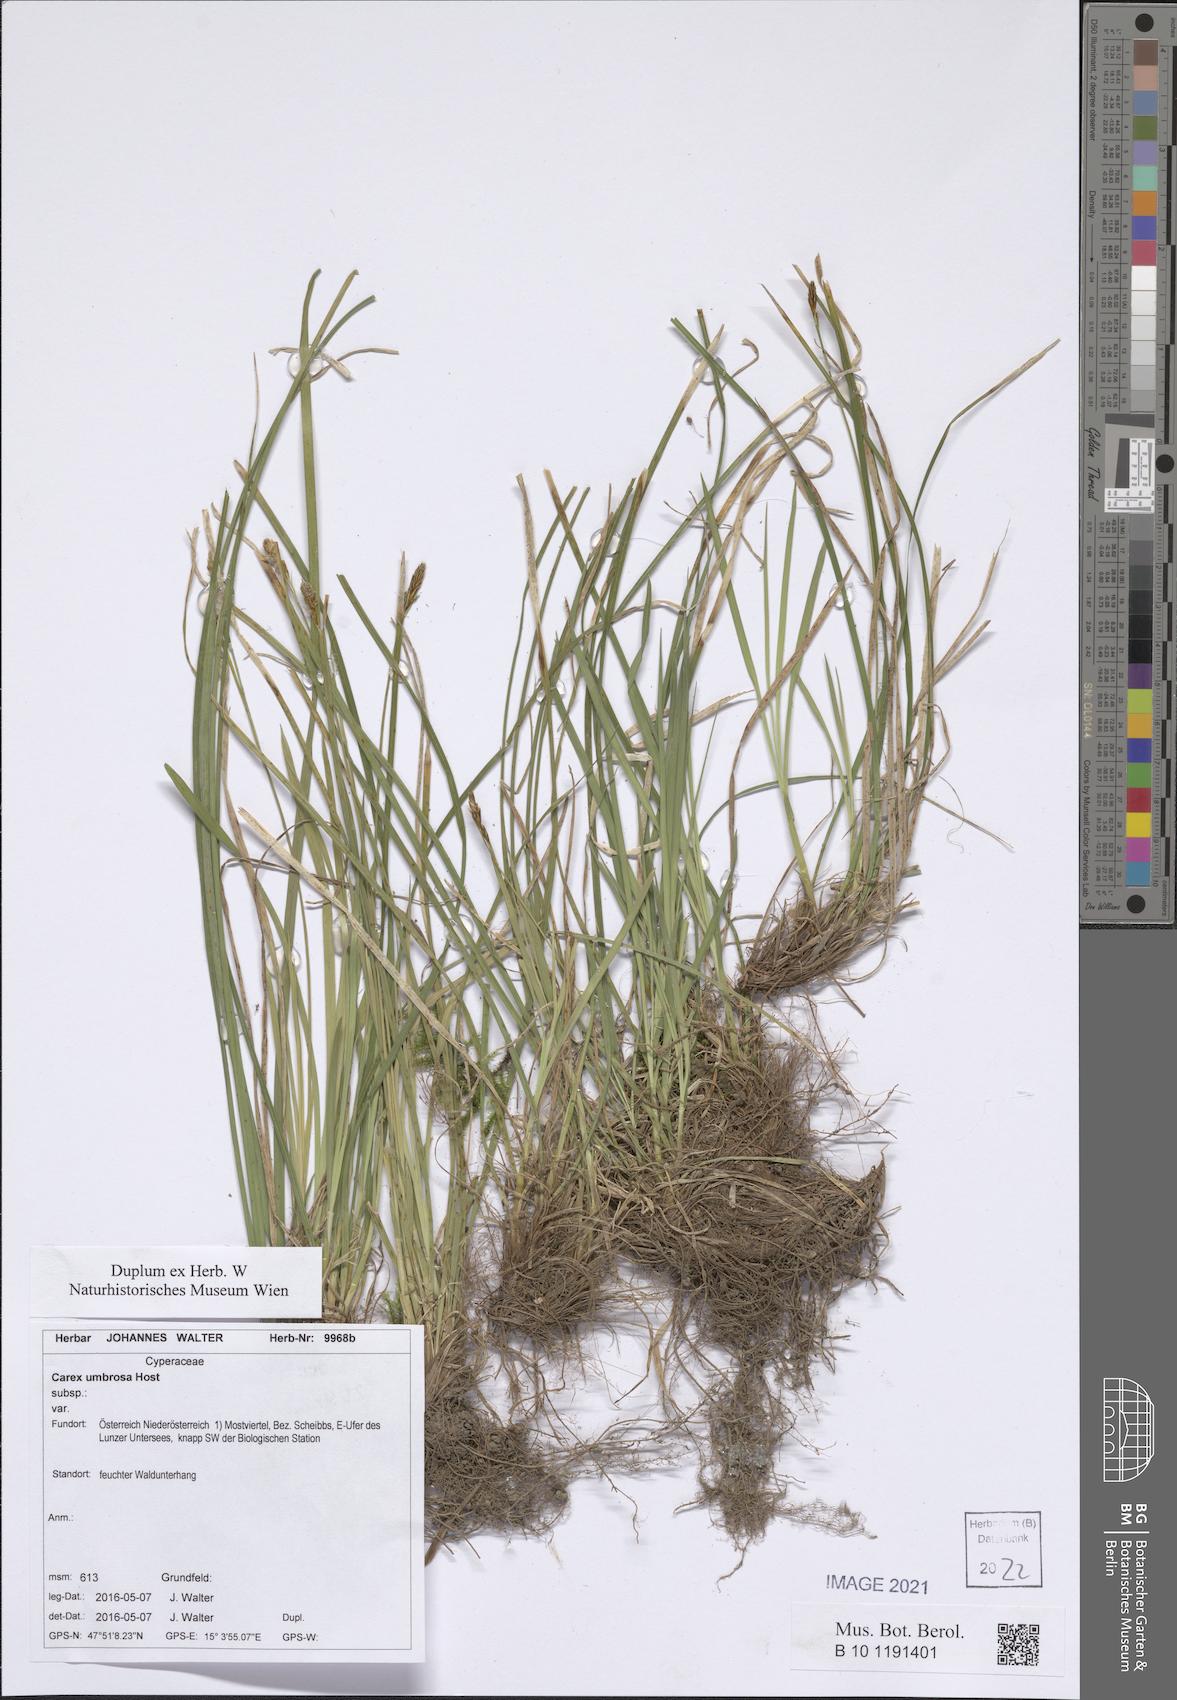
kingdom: Plantae
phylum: Tracheophyta
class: Liliopsida
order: Poales
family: Cyperaceae
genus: Carex
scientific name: Carex umbrosa
